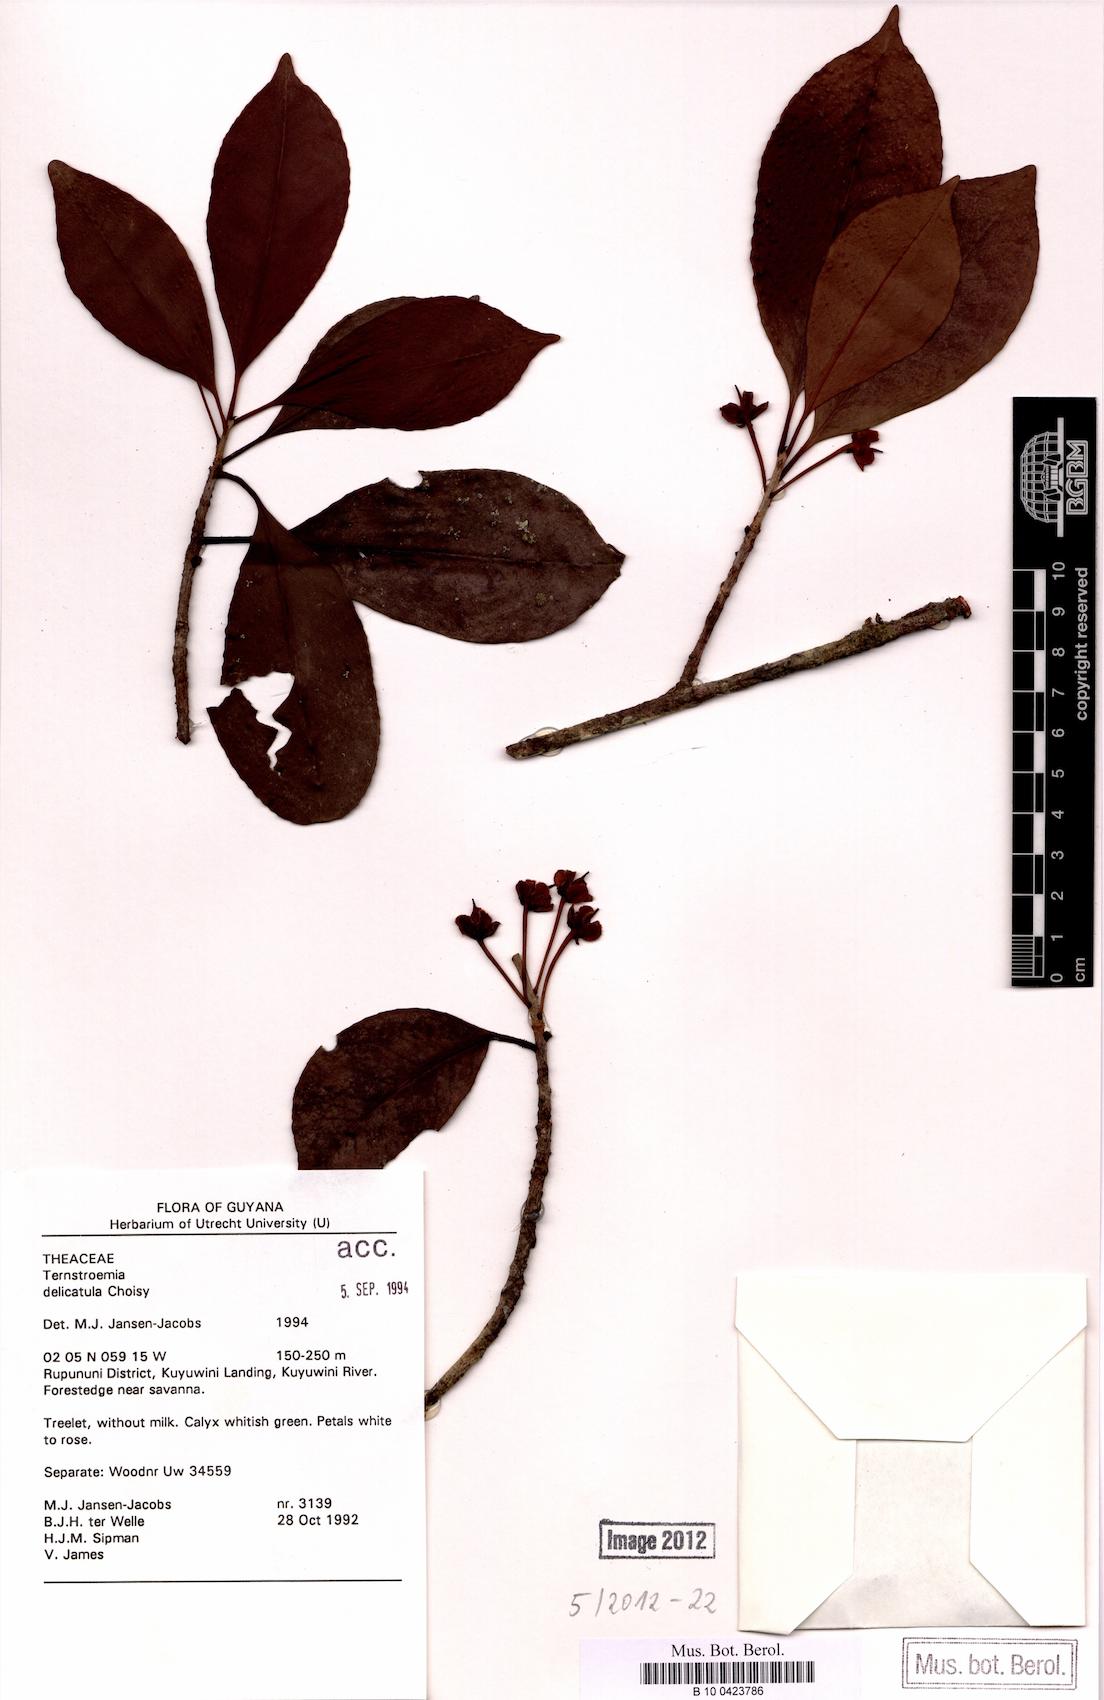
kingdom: Plantae
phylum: Tracheophyta
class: Magnoliopsida
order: Ericales
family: Pentaphylacaceae
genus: Ternstroemia
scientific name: Ternstroemia delicatula
